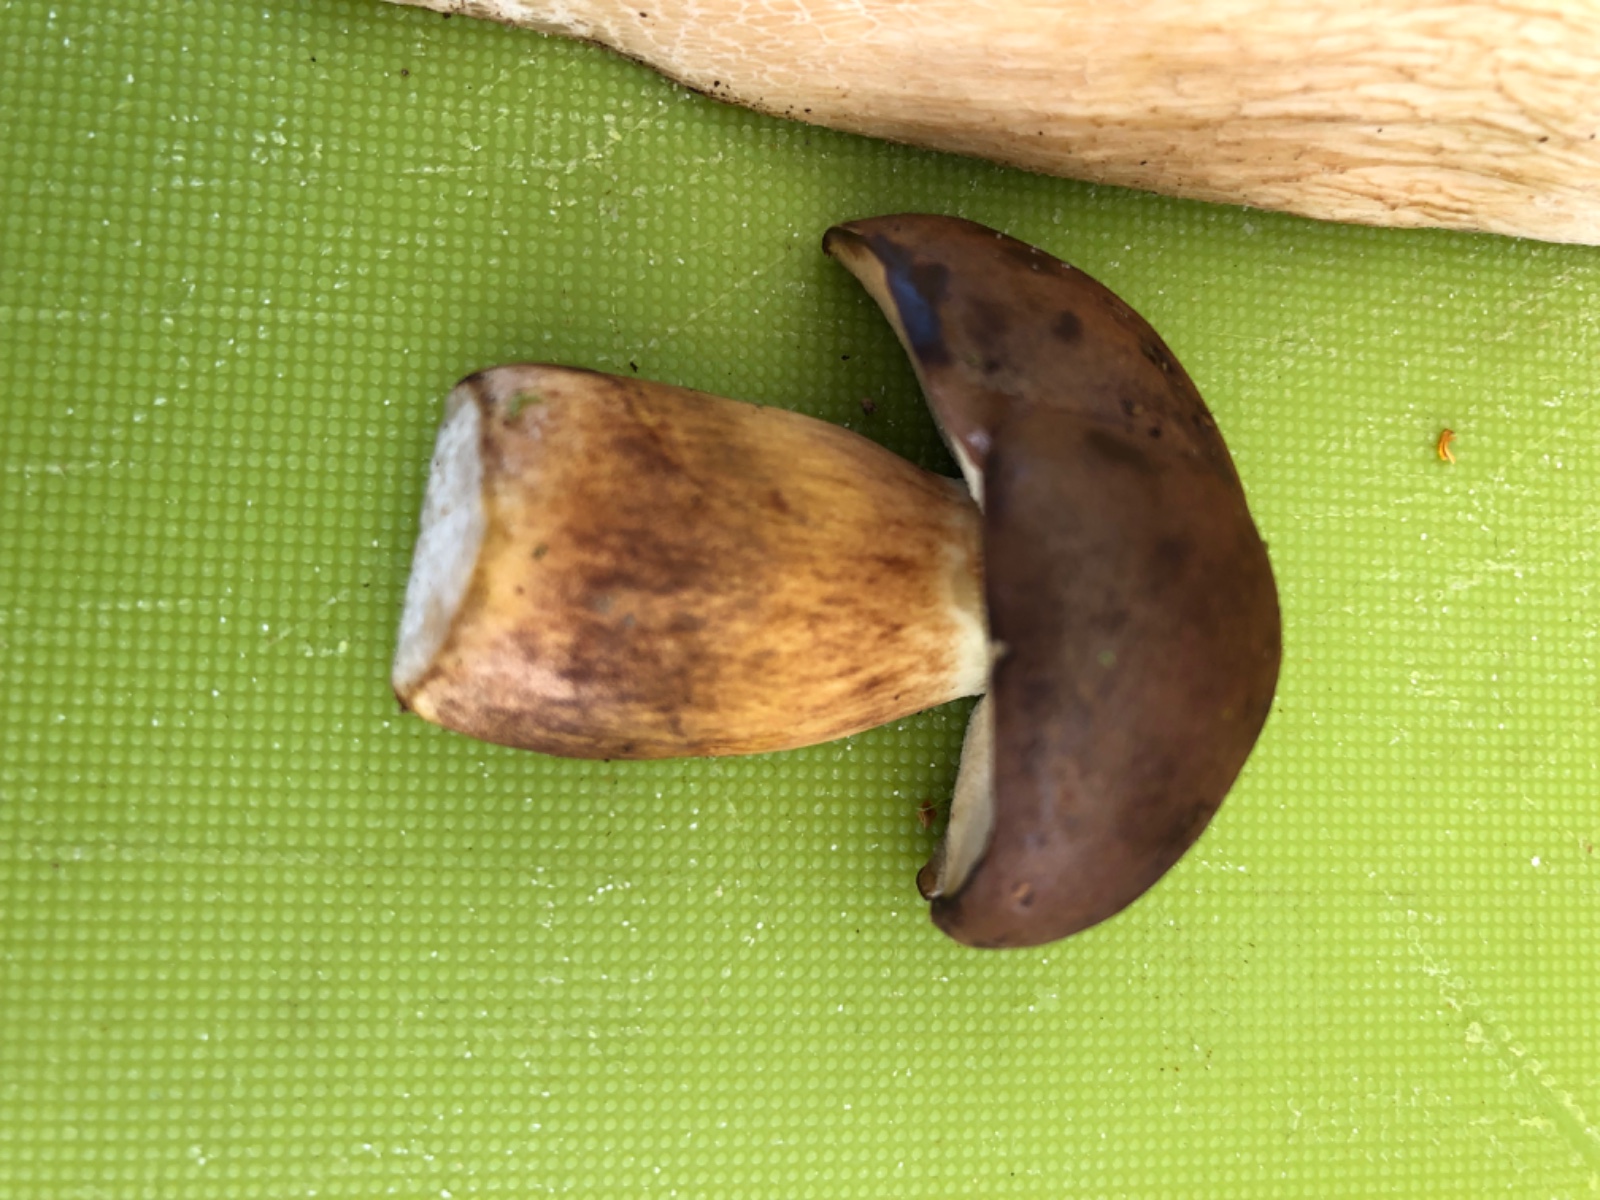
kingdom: Fungi
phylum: Basidiomycota
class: Agaricomycetes
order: Boletales
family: Boletaceae
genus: Imleria
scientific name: Imleria badia
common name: brunstokket rørhat
